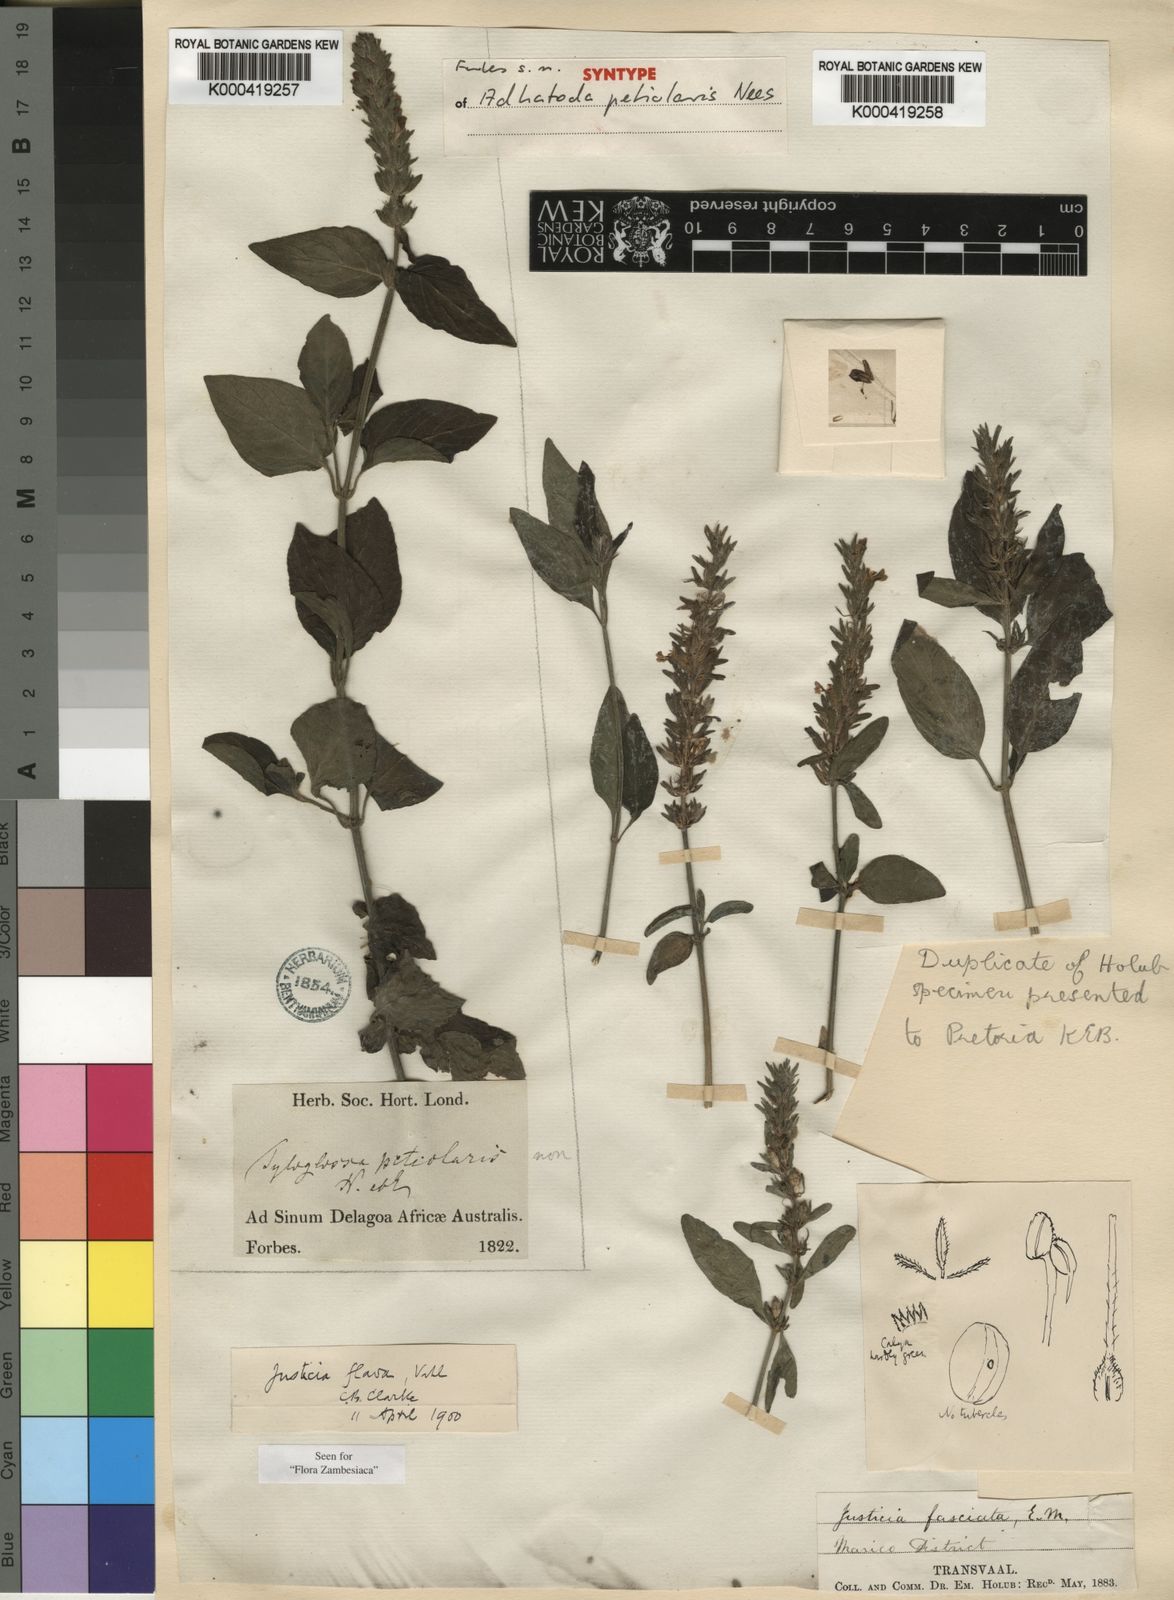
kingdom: Plantae
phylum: Tracheophyta
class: Magnoliopsida
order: Lamiales
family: Acanthaceae
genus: Justicia
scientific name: Justicia flava
